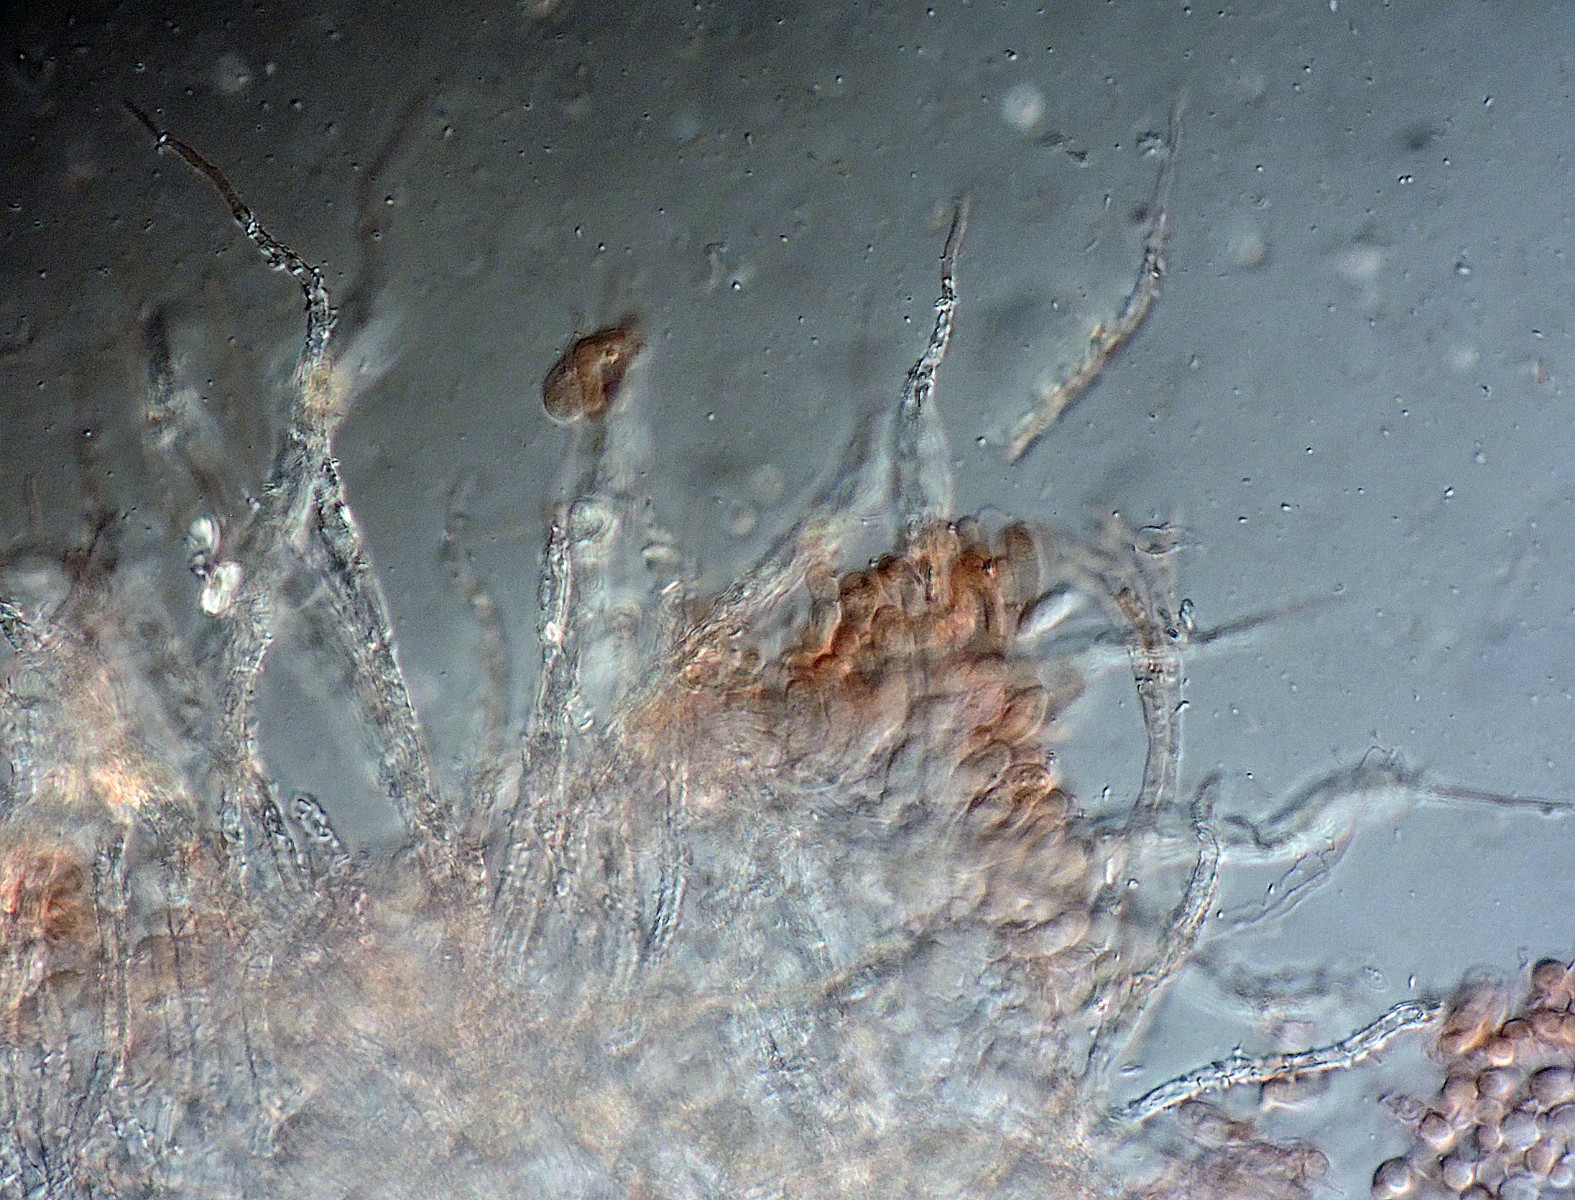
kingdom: Fungi
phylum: Basidiomycota
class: Agaricomycetes
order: Agaricales
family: Niaceae
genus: Flagelloscypha
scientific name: Flagelloscypha minutissima
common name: lille hængeskål
